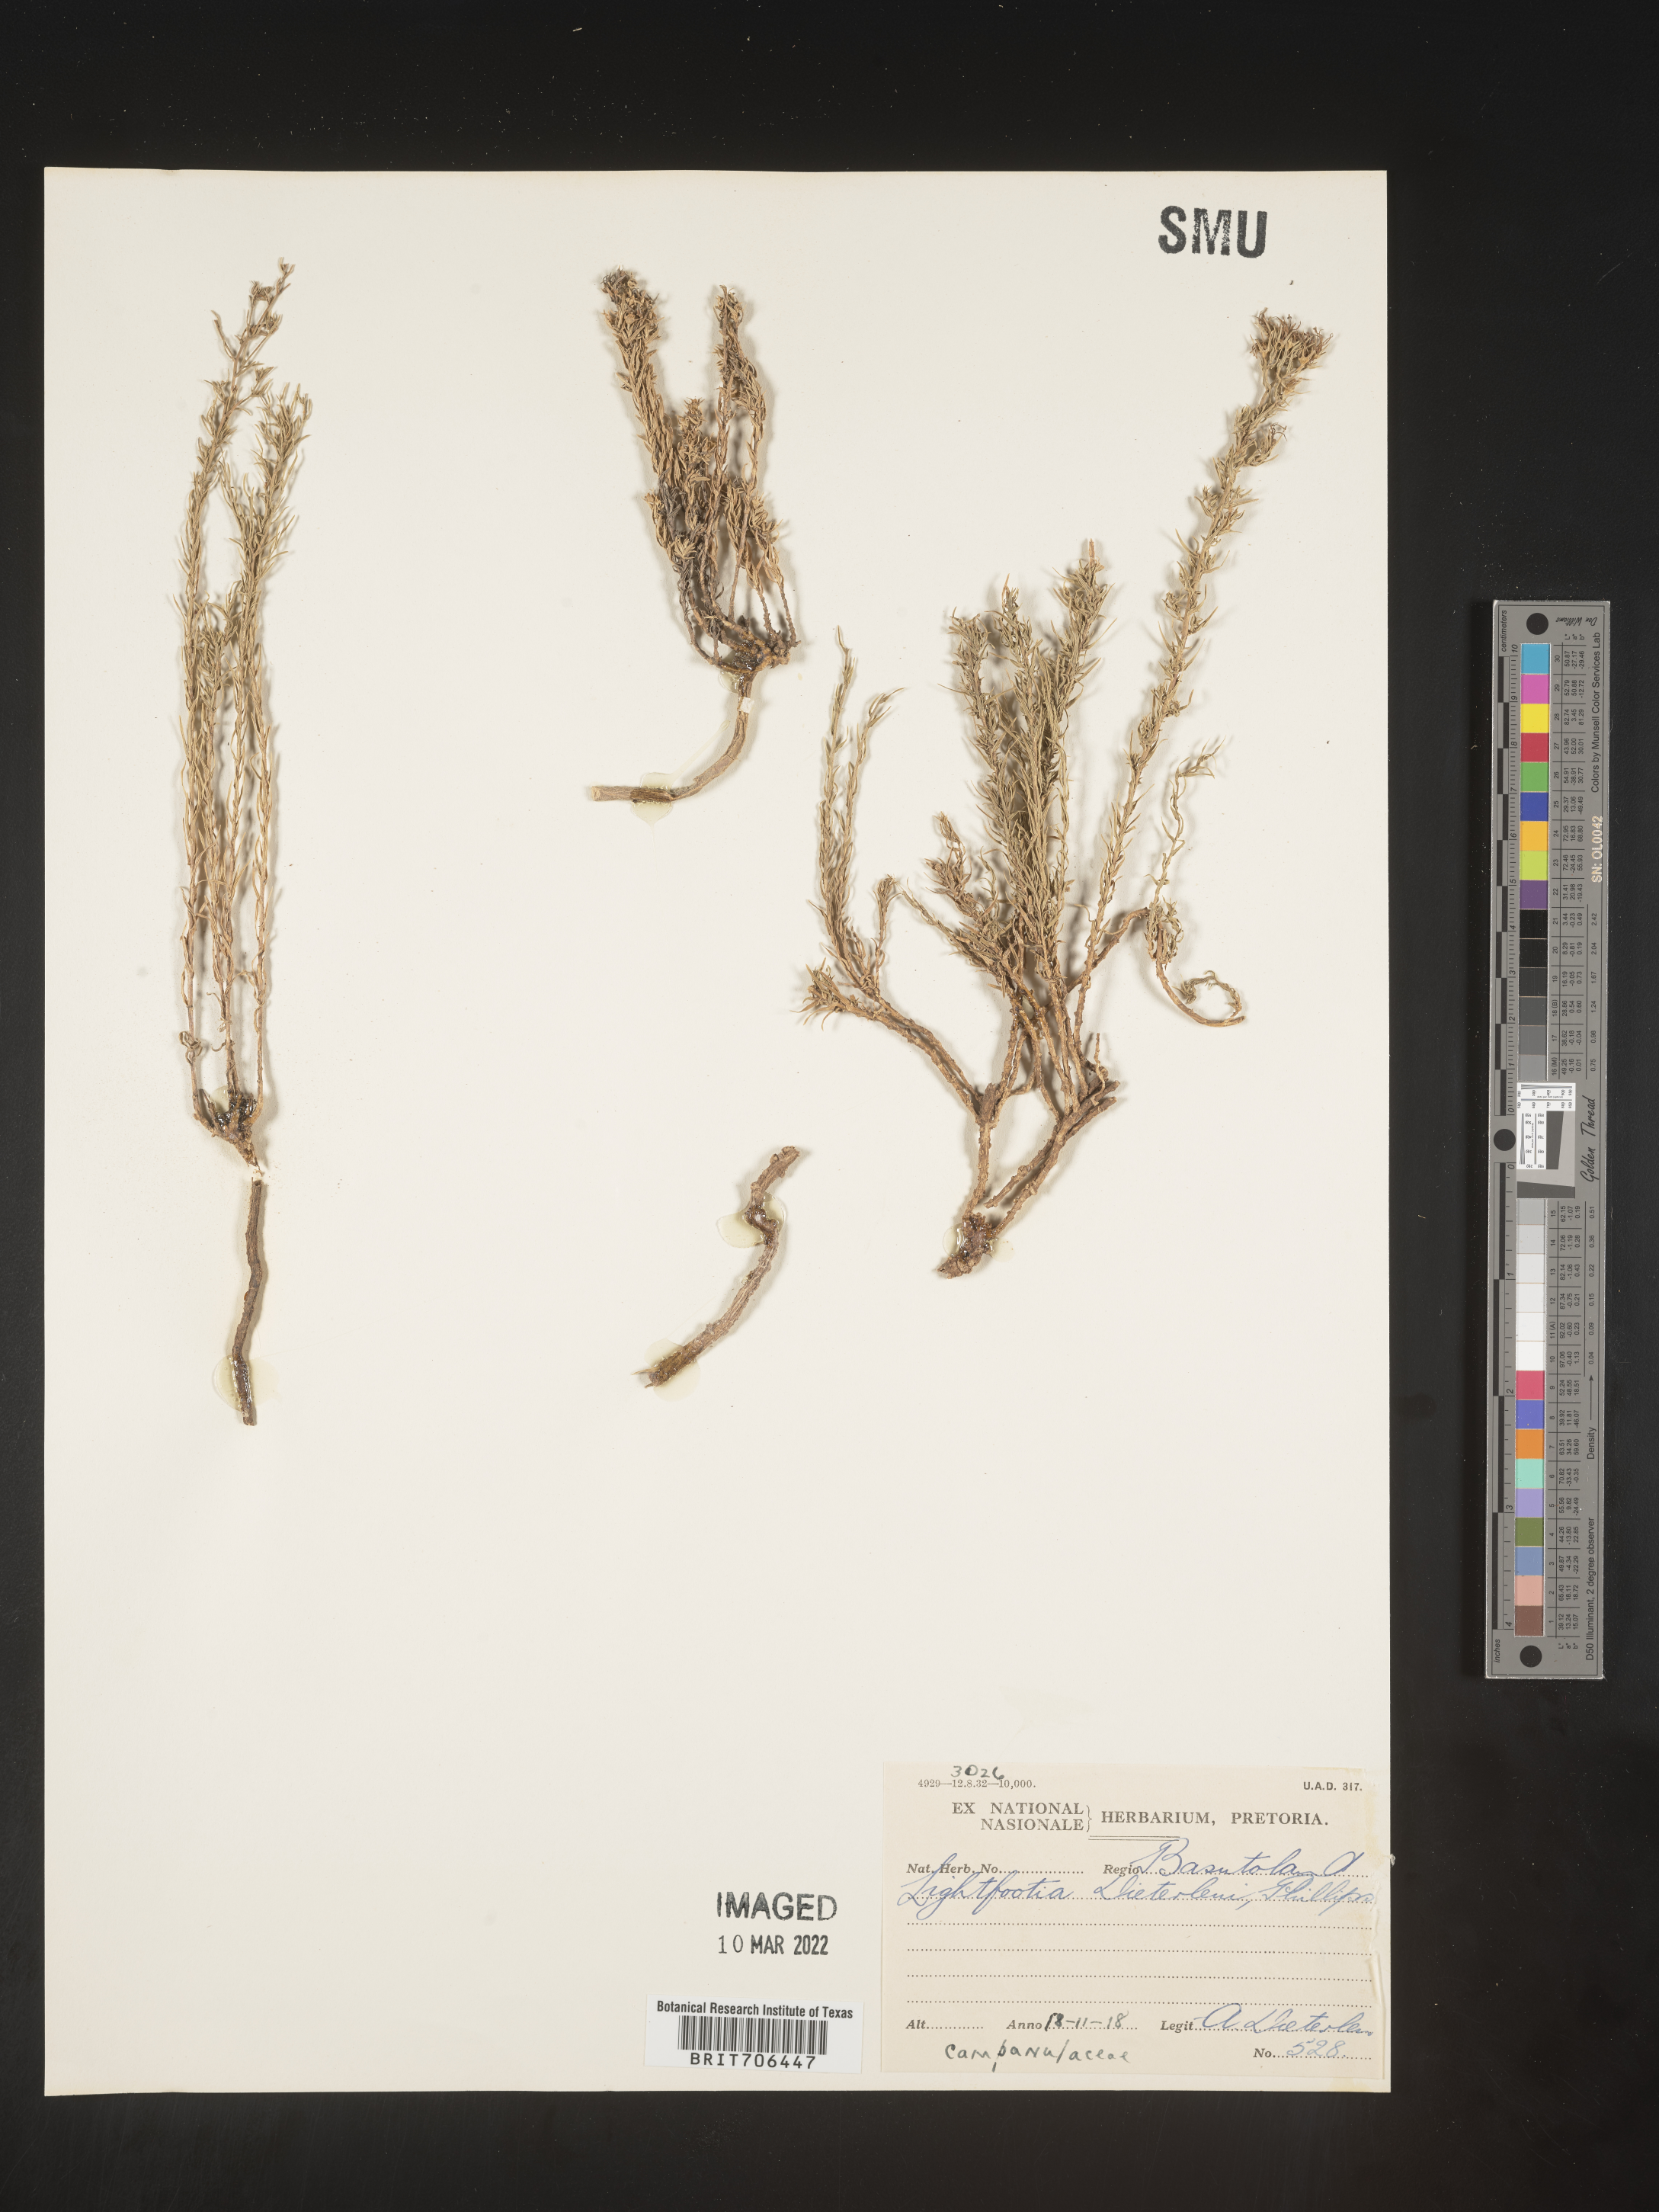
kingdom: Plantae
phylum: Tracheophyta
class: Magnoliopsida
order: Malvales
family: Bixaceae
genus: Lightfootia
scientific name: Lightfootia
